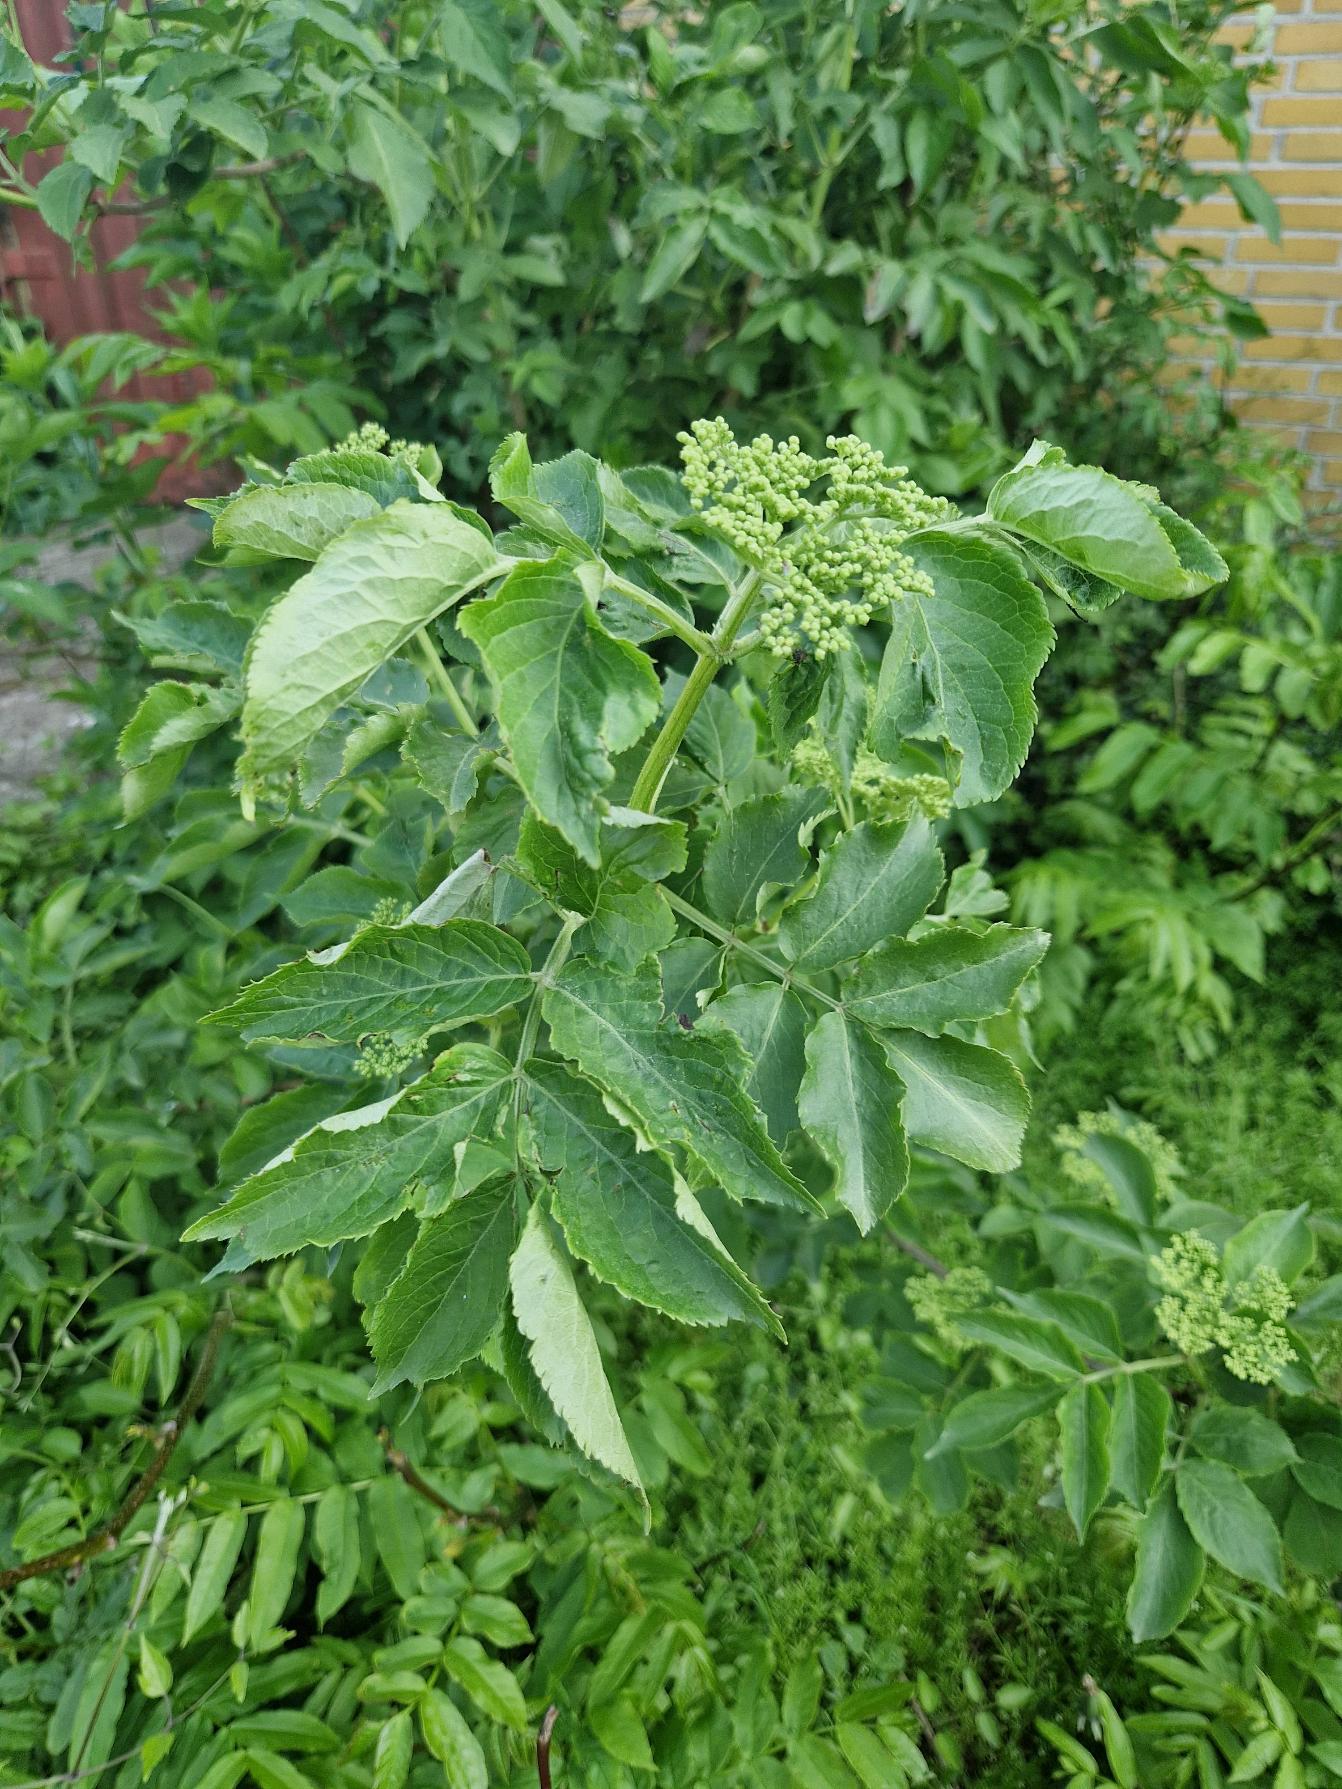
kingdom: Plantae
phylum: Tracheophyta
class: Magnoliopsida
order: Dipsacales
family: Viburnaceae
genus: Sambucus
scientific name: Sambucus nigra
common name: Almindelig hyld
